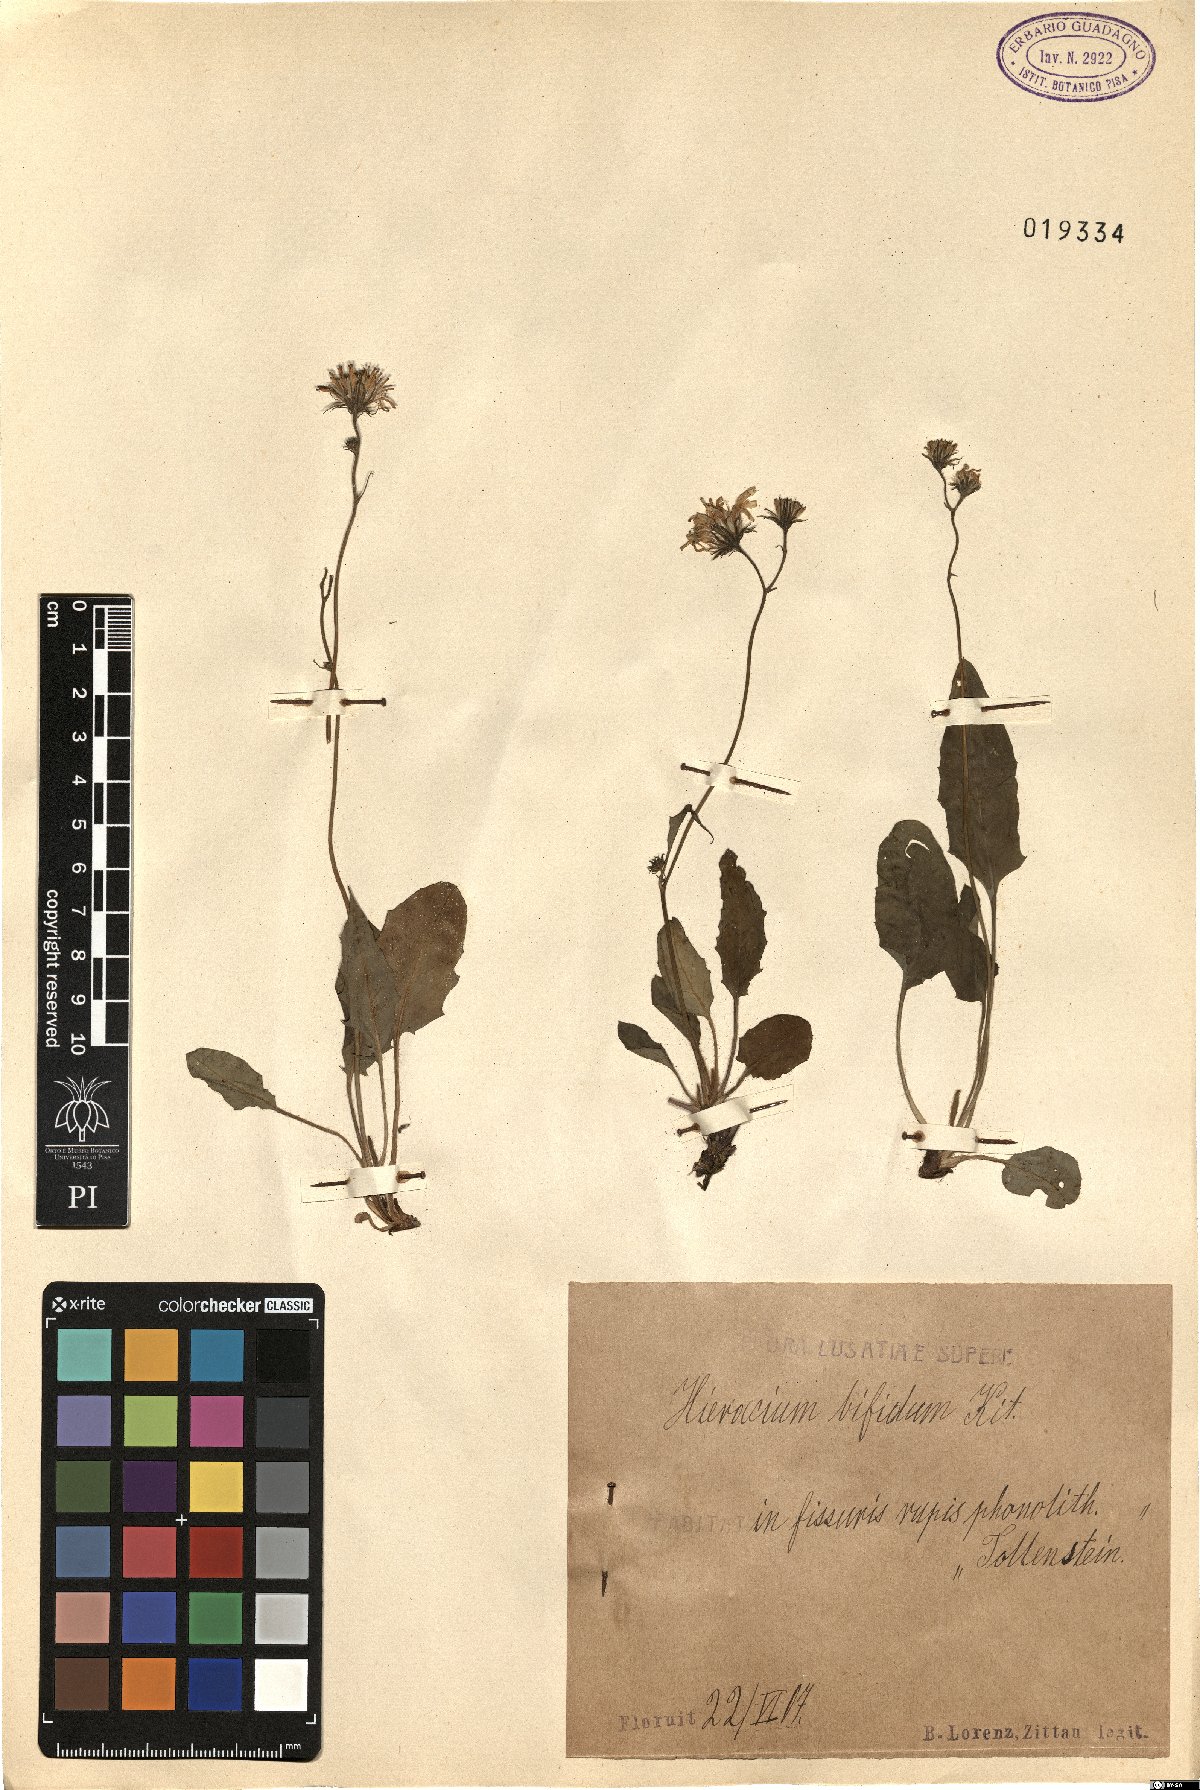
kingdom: Plantae
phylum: Tracheophyta
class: Magnoliopsida
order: Asterales
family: Asteraceae
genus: Hieracium
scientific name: Hieracium bifidum
